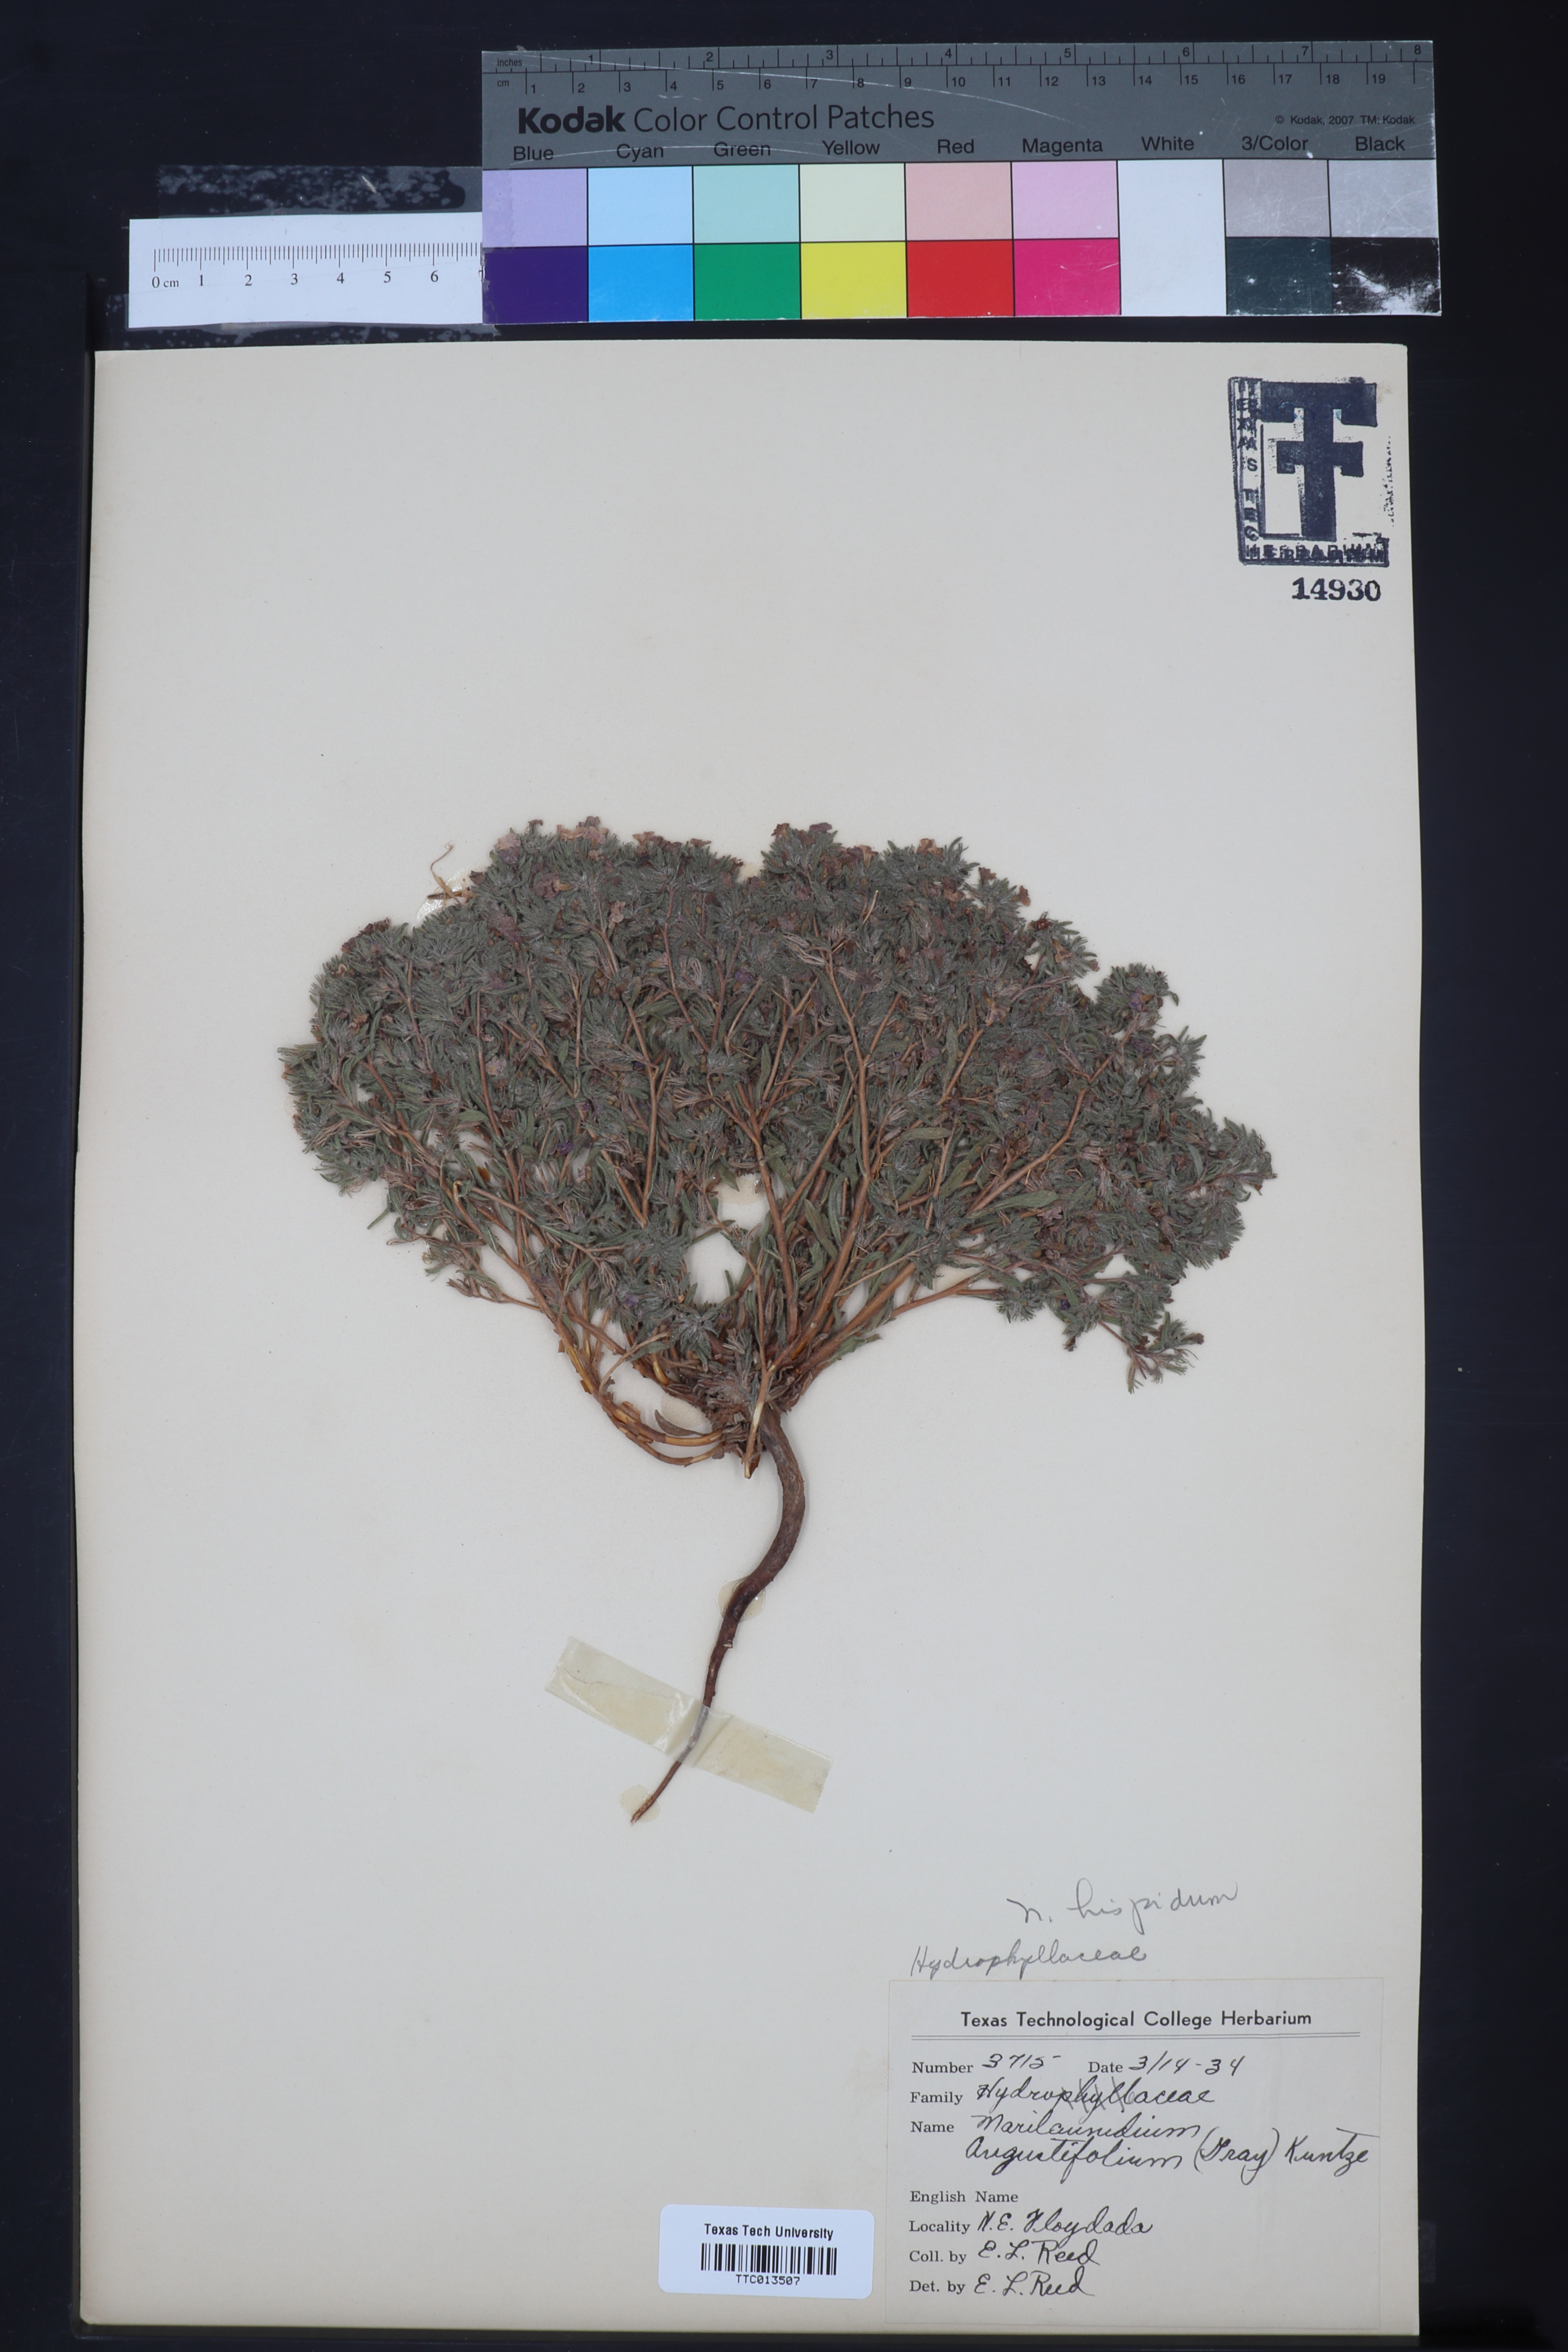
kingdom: Plantae
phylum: Tracheophyta
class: Magnoliopsida
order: Boraginales
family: Namaceae
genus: Nama
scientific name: Nama hispida
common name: Bristly nama
